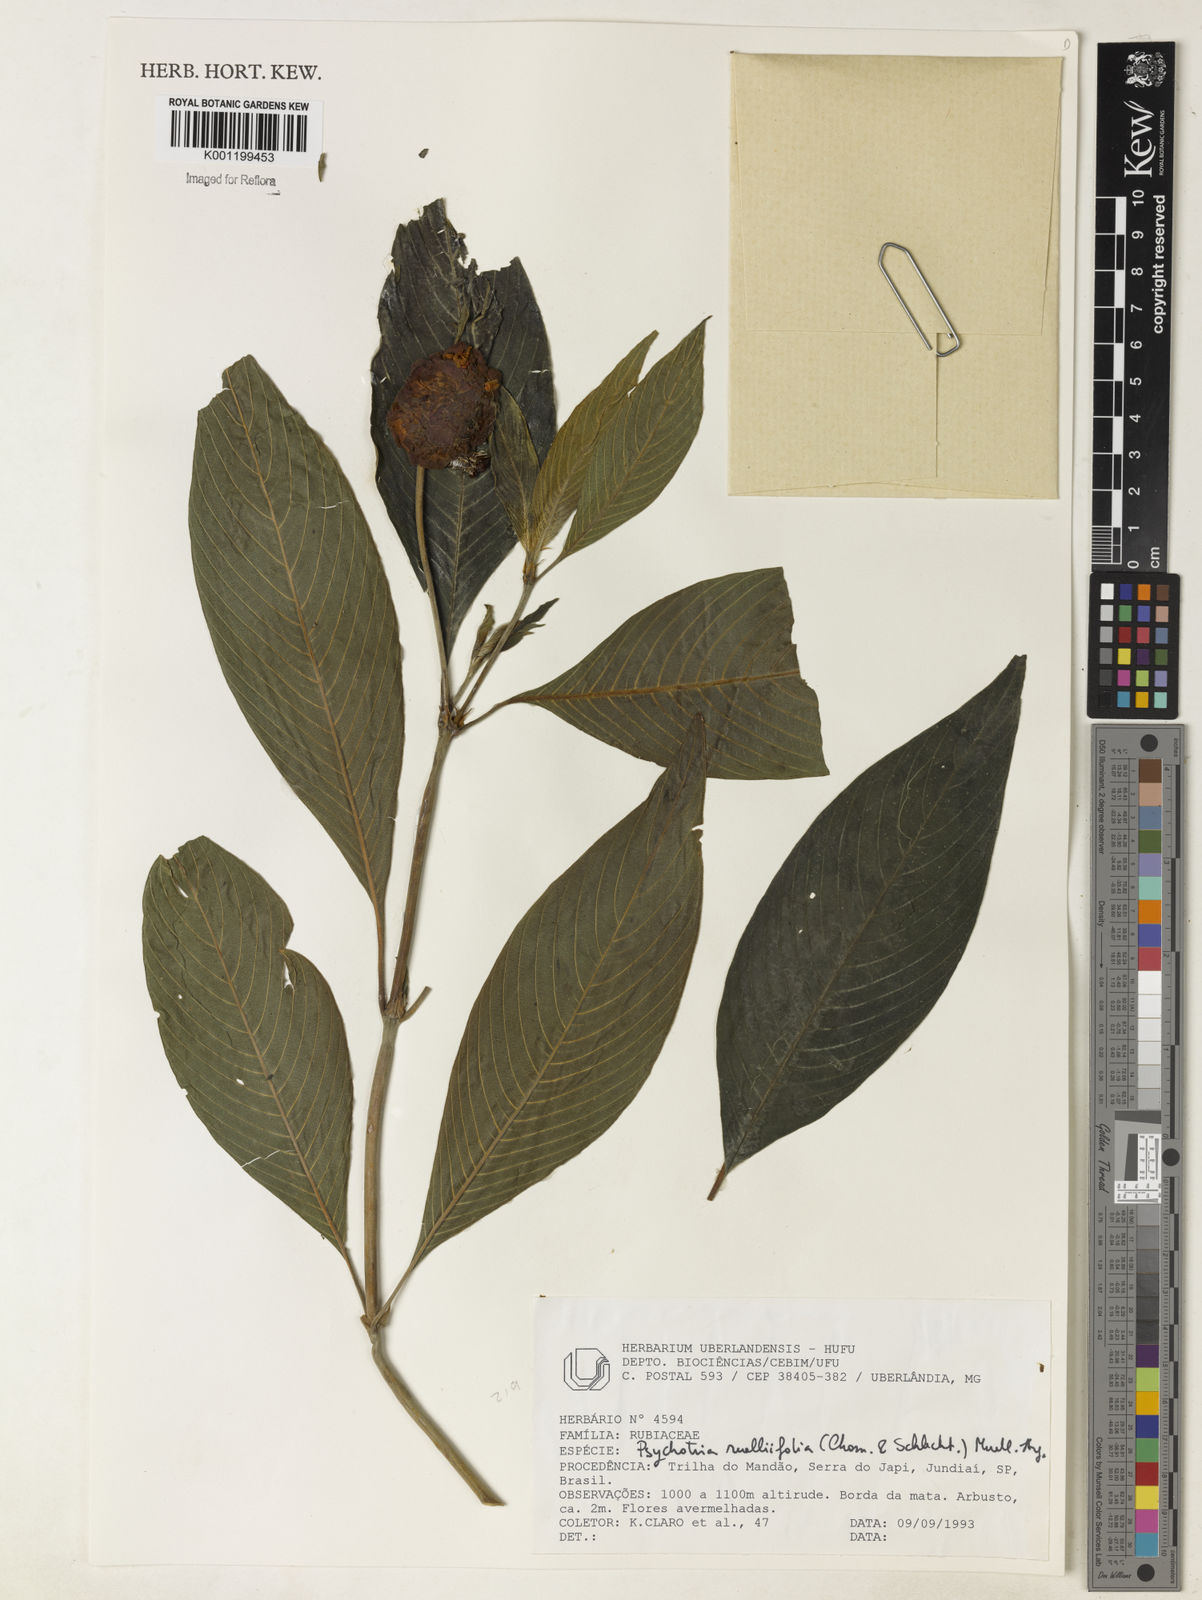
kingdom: Plantae
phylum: Tracheophyta
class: Magnoliopsida
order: Gentianales
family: Rubiaceae
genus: Psychotria
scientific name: Psychotria
